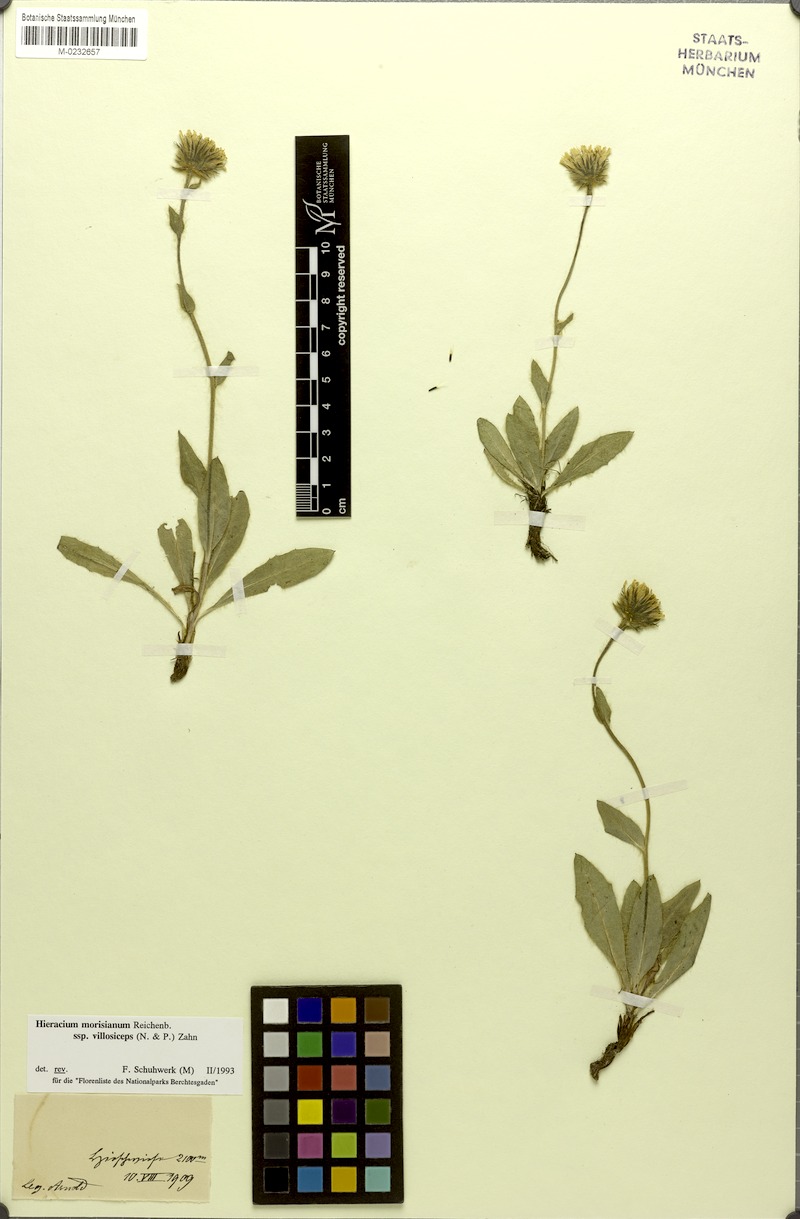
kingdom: Plantae
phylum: Tracheophyta
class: Magnoliopsida
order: Asterales
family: Asteraceae
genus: Hieracium
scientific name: Hieracium pilosum
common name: Fimbriate-pitted hawkweed
